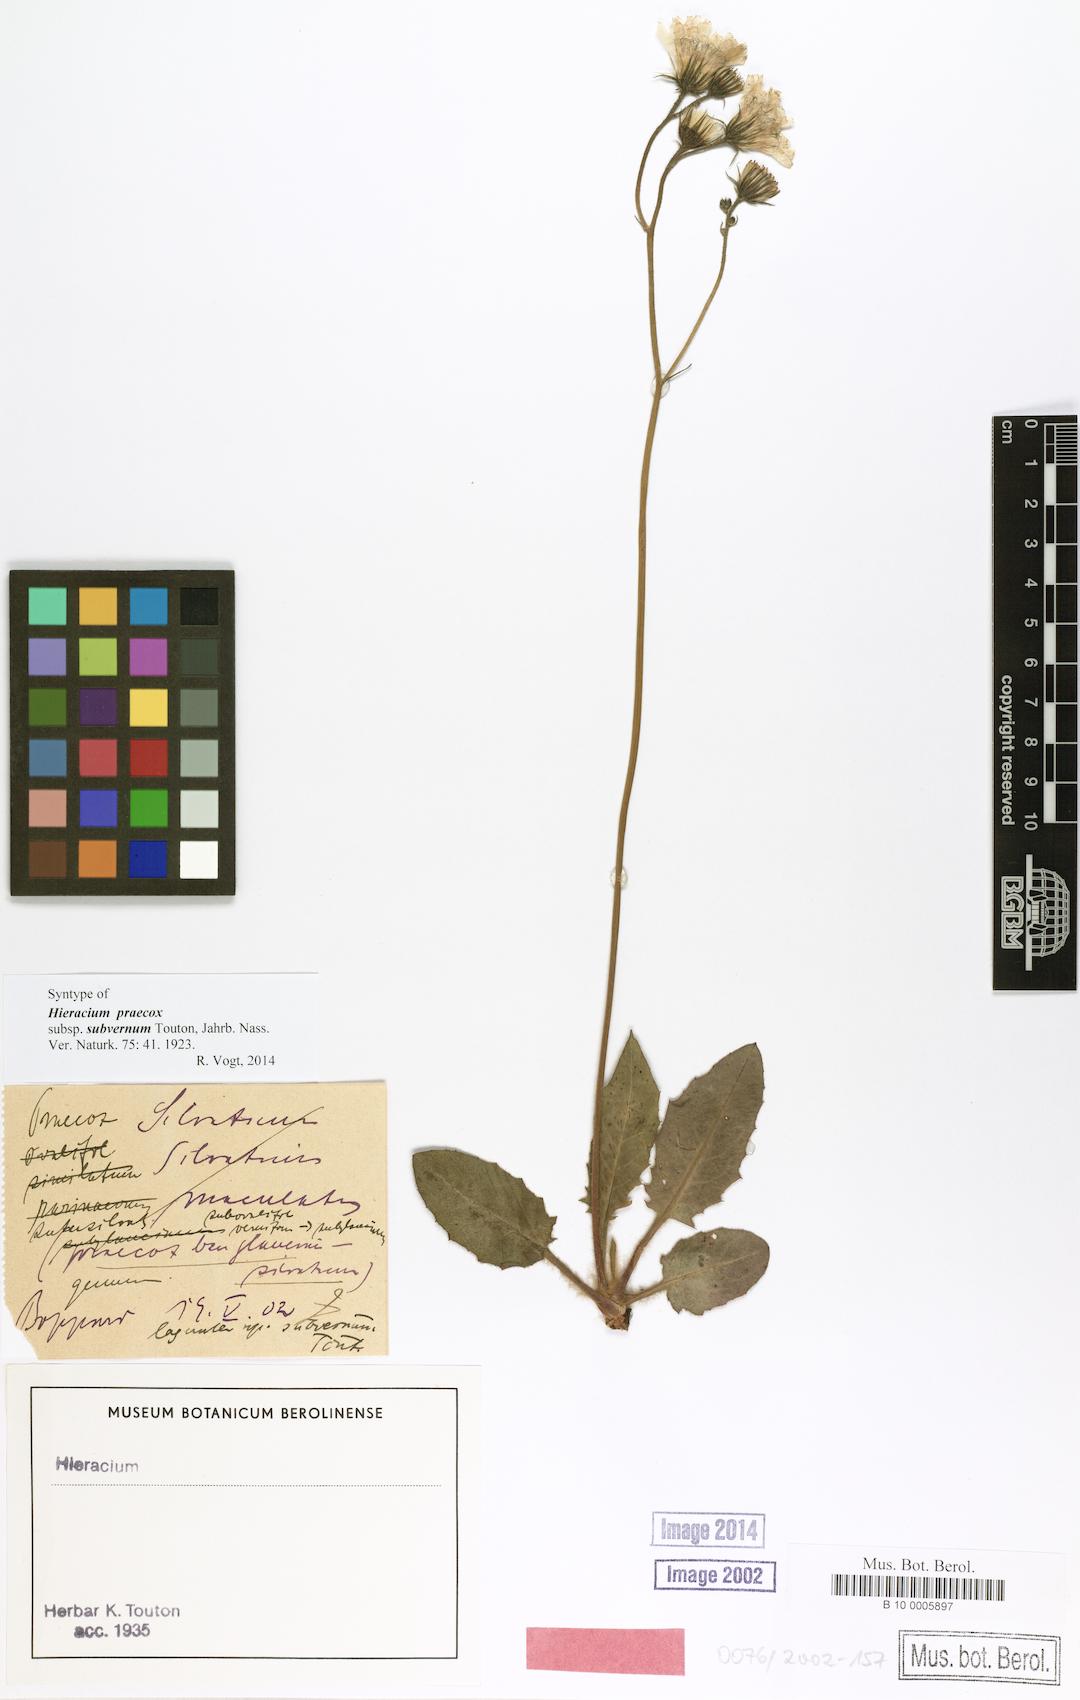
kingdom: Plantae
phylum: Tracheophyta
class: Magnoliopsida
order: Asterales
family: Asteraceae
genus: Hieracium
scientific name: Hieracium brevipes
